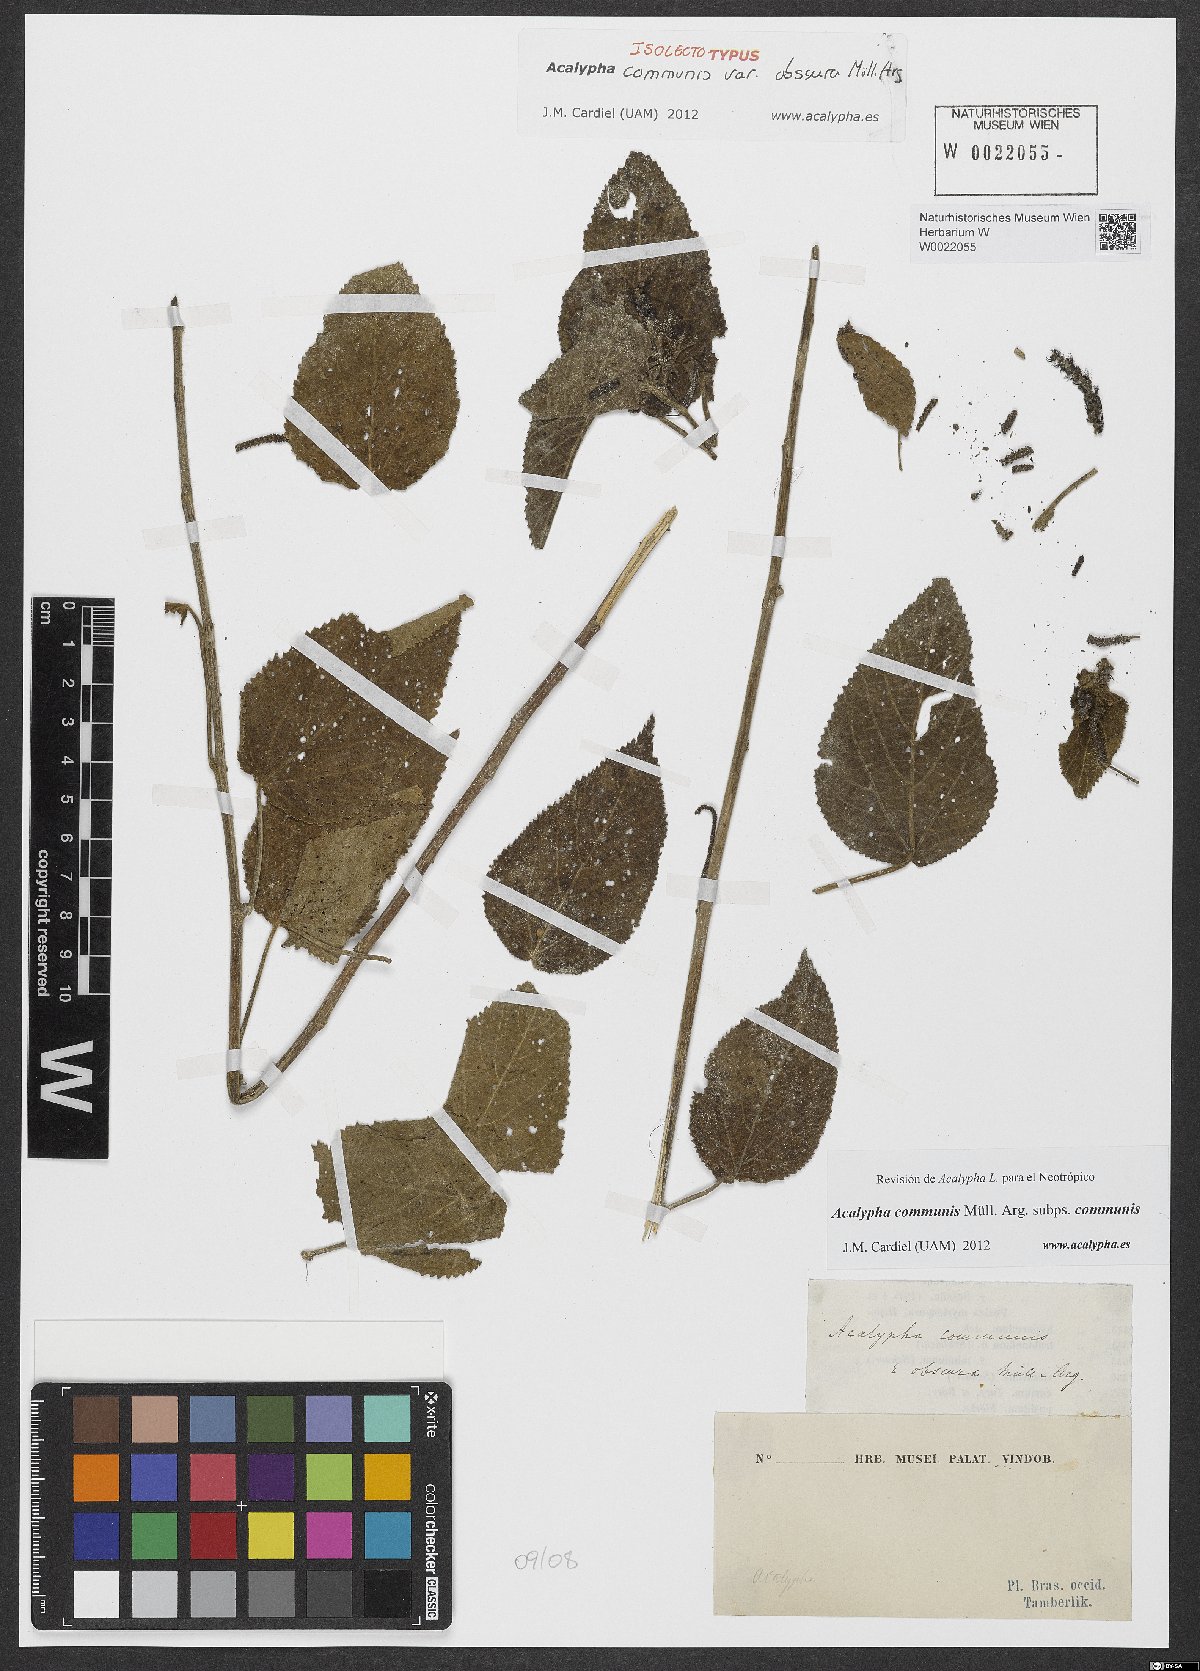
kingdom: Plantae
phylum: Tracheophyta
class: Magnoliopsida
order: Malpighiales
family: Euphorbiaceae
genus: Acalypha
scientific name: Acalypha communis
